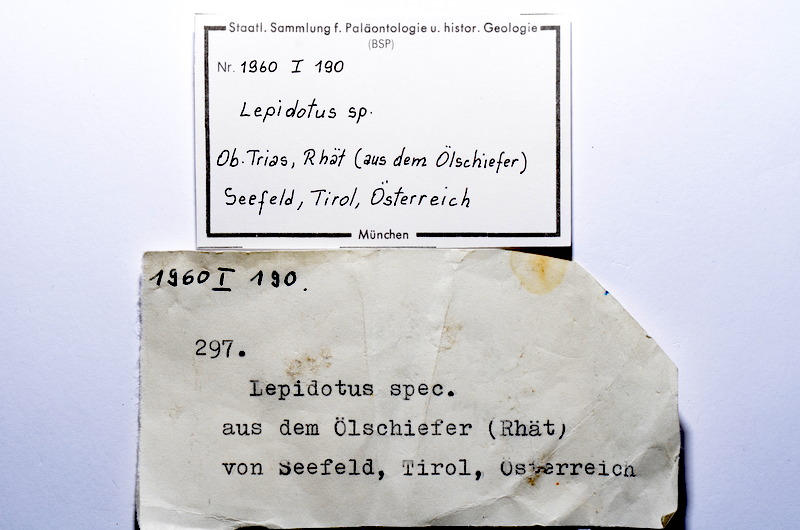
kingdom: Animalia
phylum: Chordata
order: Lepisosteiformes
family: Lepidotidae
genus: Lepidotes
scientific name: Lepidotes
